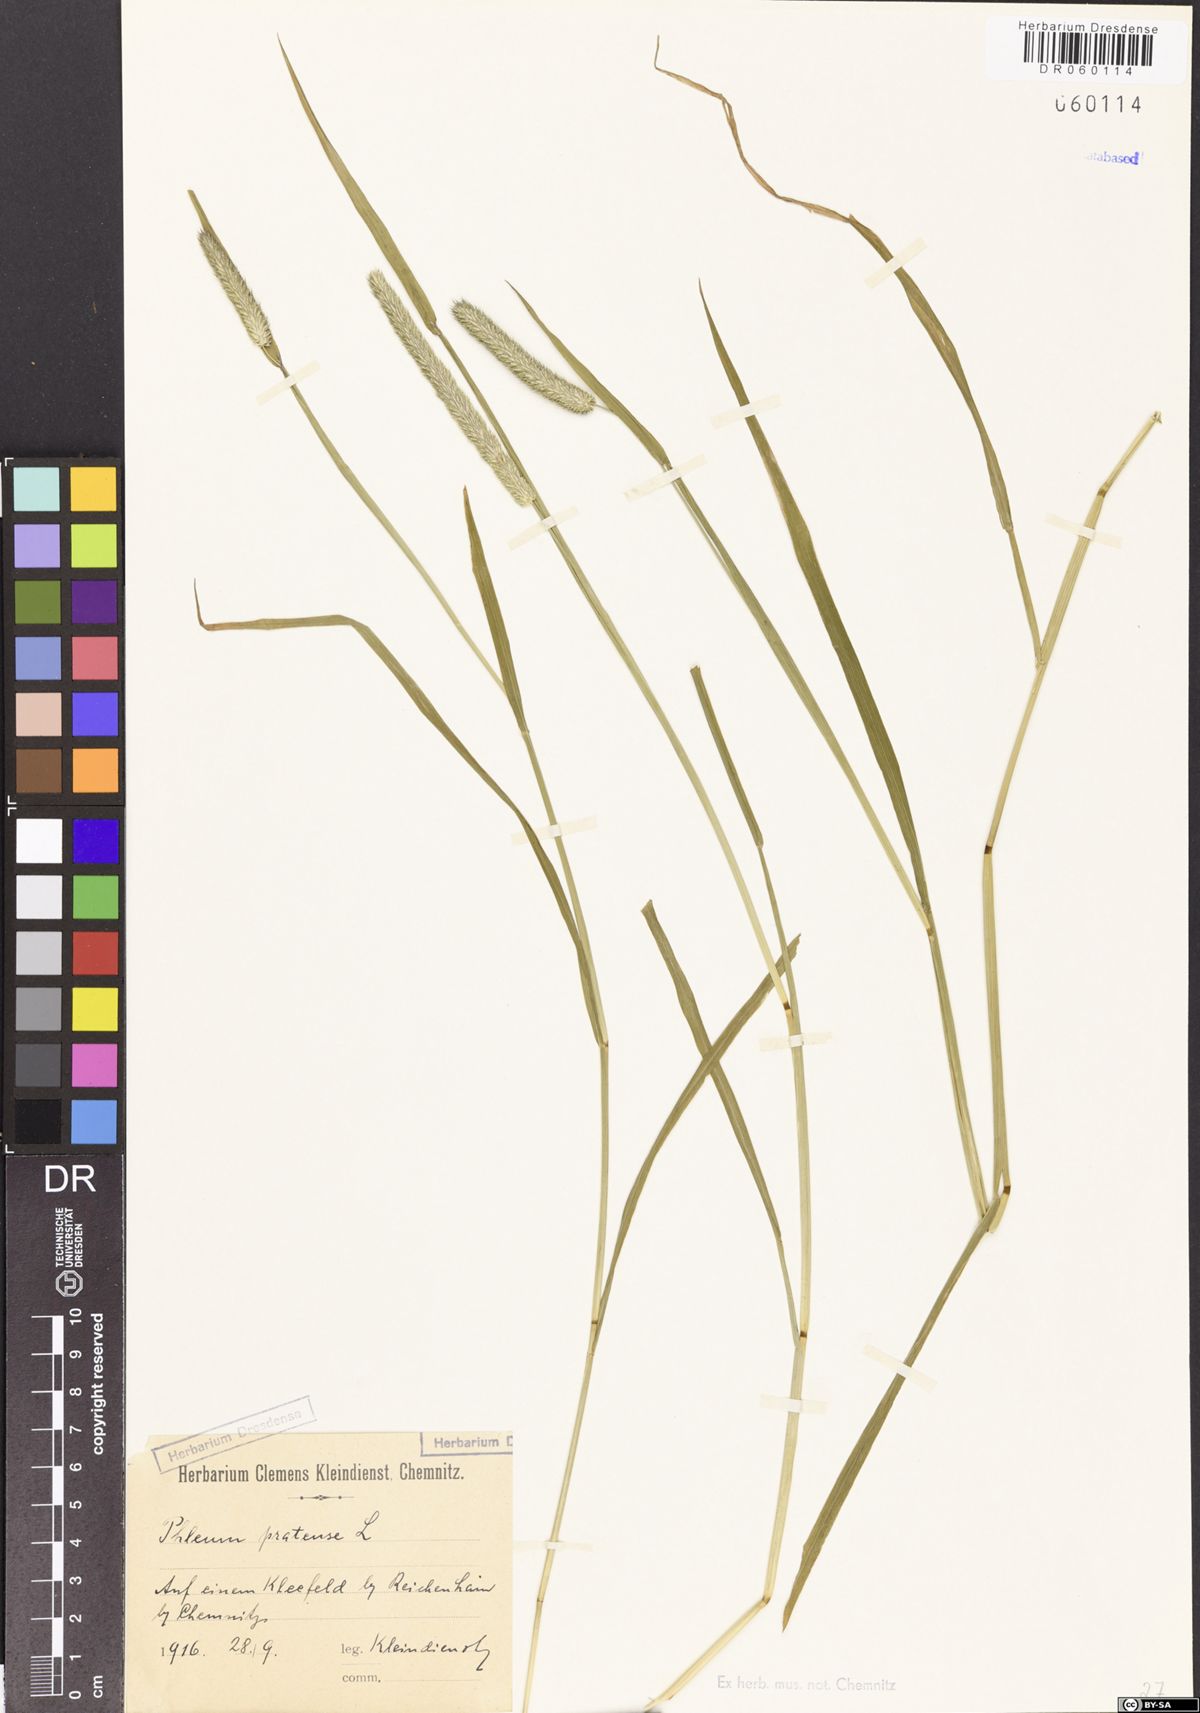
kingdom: Plantae
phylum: Tracheophyta
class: Liliopsida
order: Poales
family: Poaceae
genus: Phleum
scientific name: Phleum pratense
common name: Timothy grass
